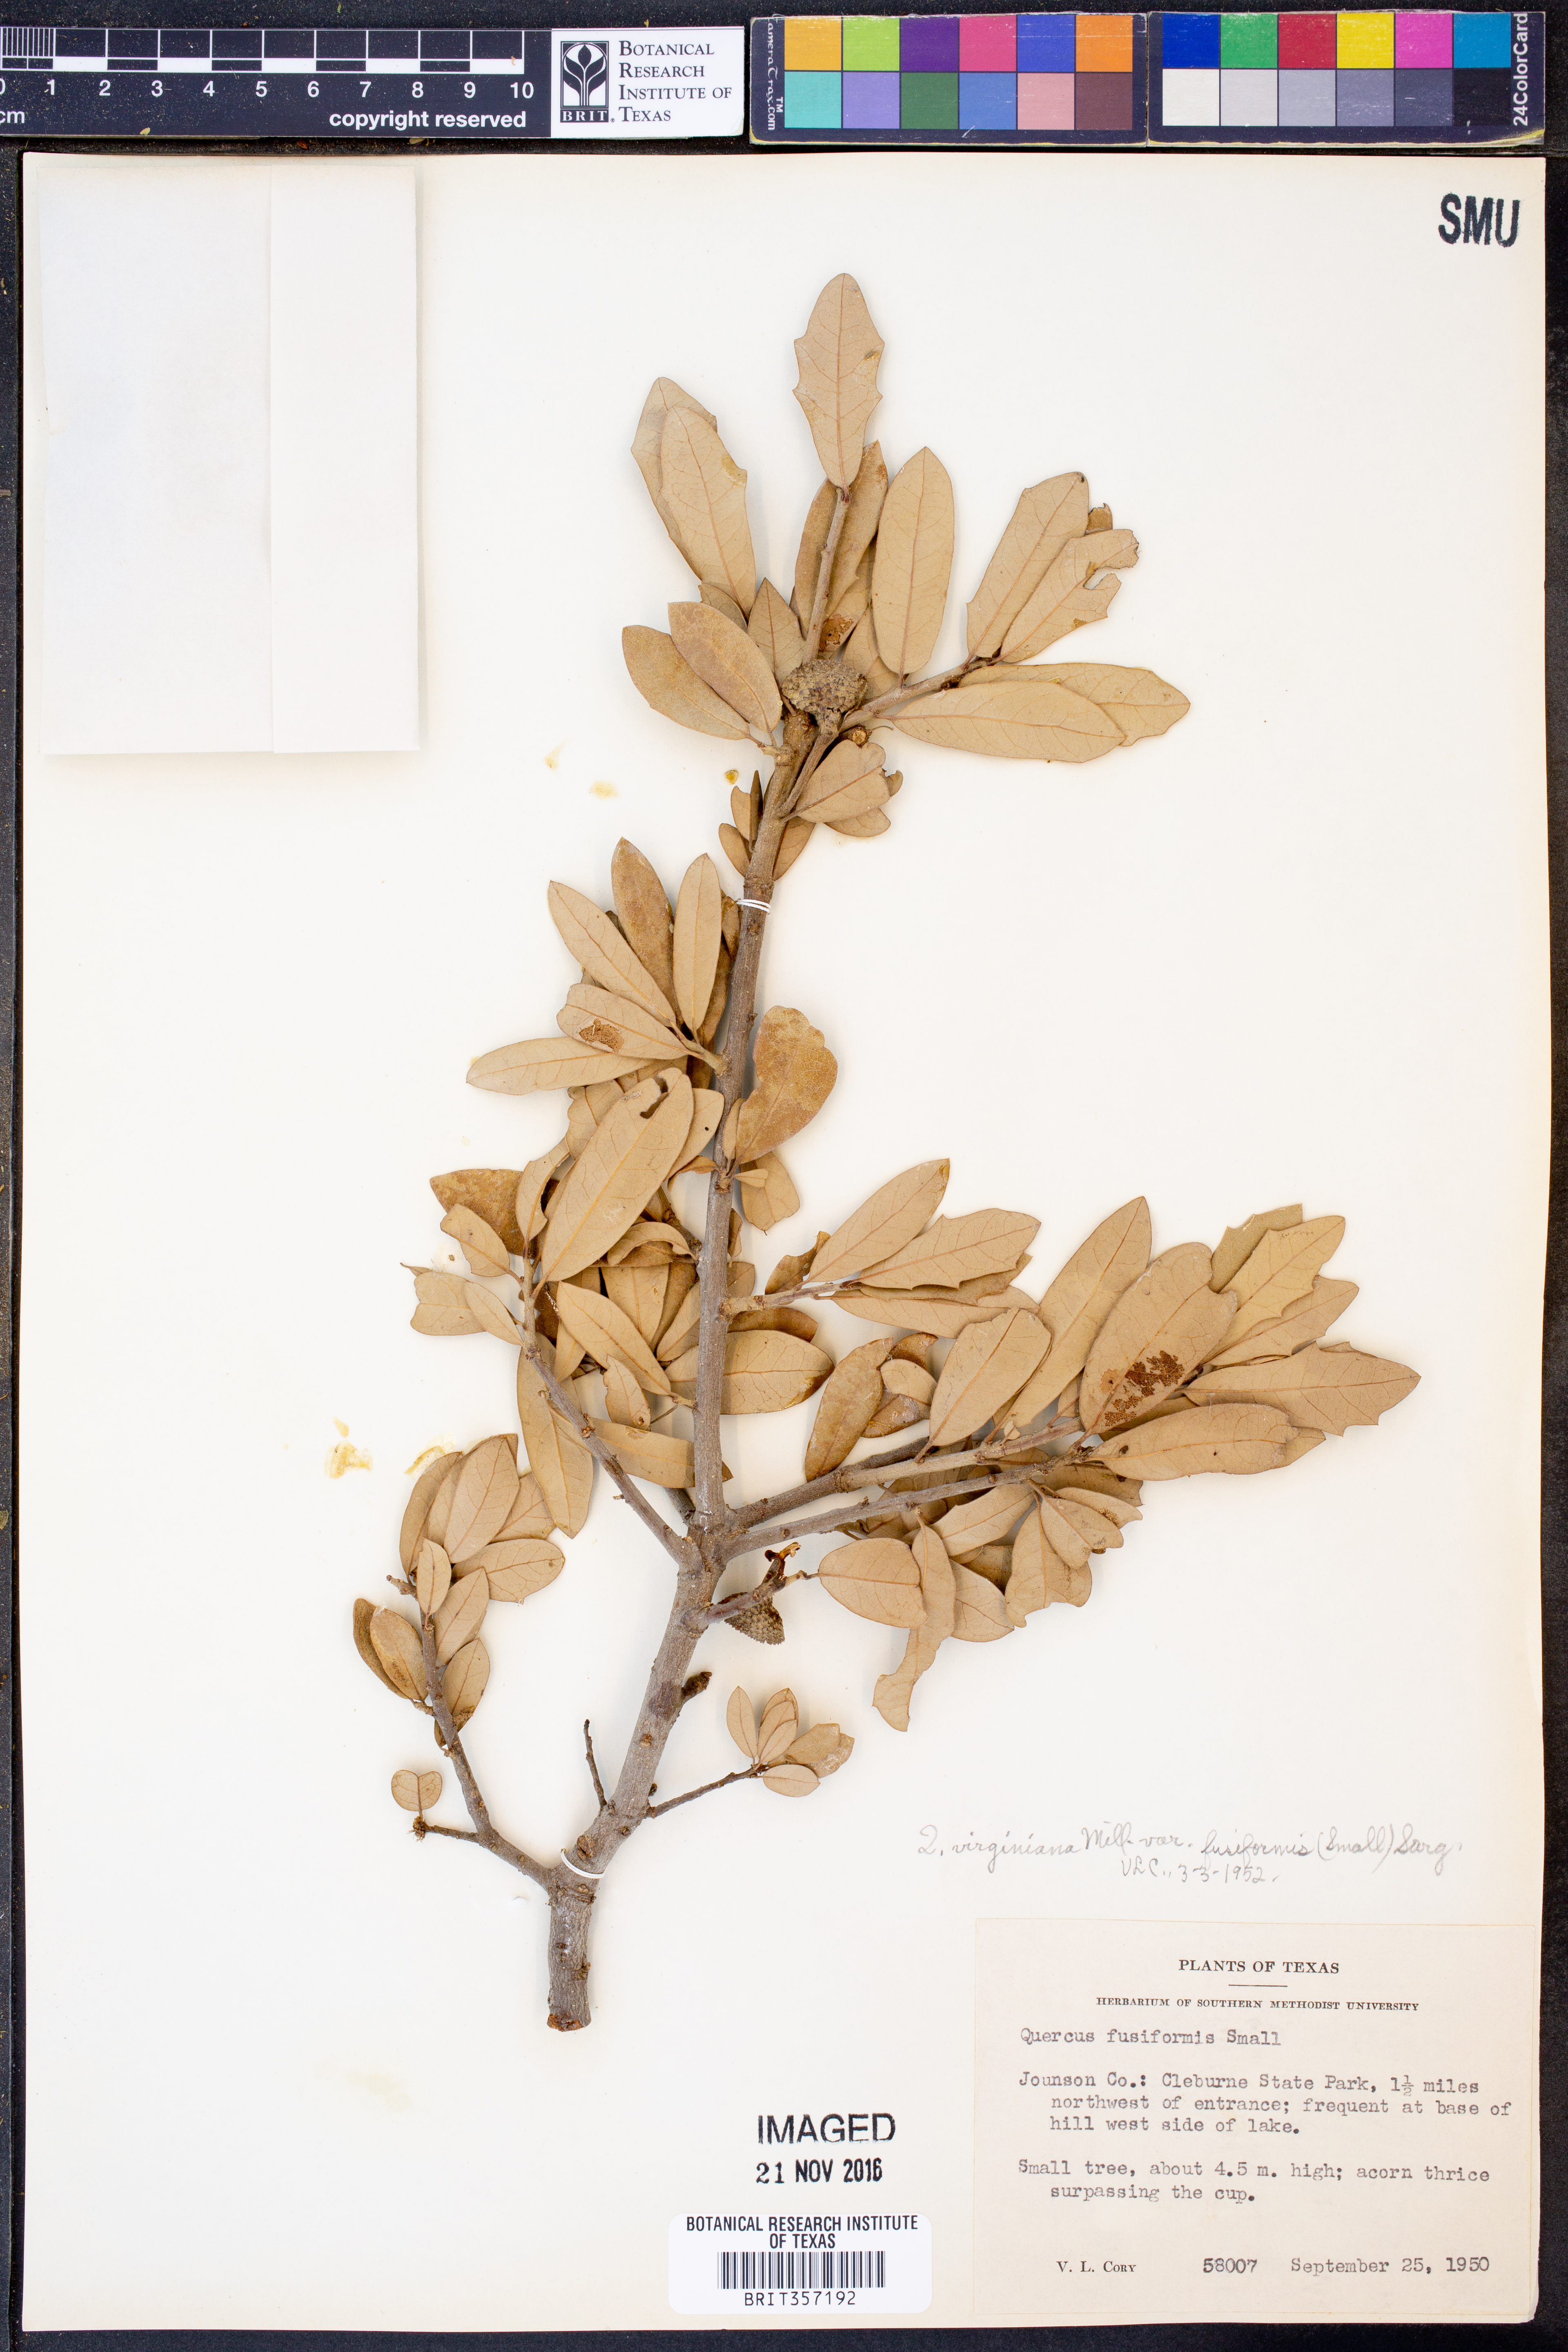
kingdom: Plantae
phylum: Tracheophyta
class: Magnoliopsida
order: Fagales
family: Fagaceae
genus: Quercus
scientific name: Quercus fusiformis
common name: Texas live oak
